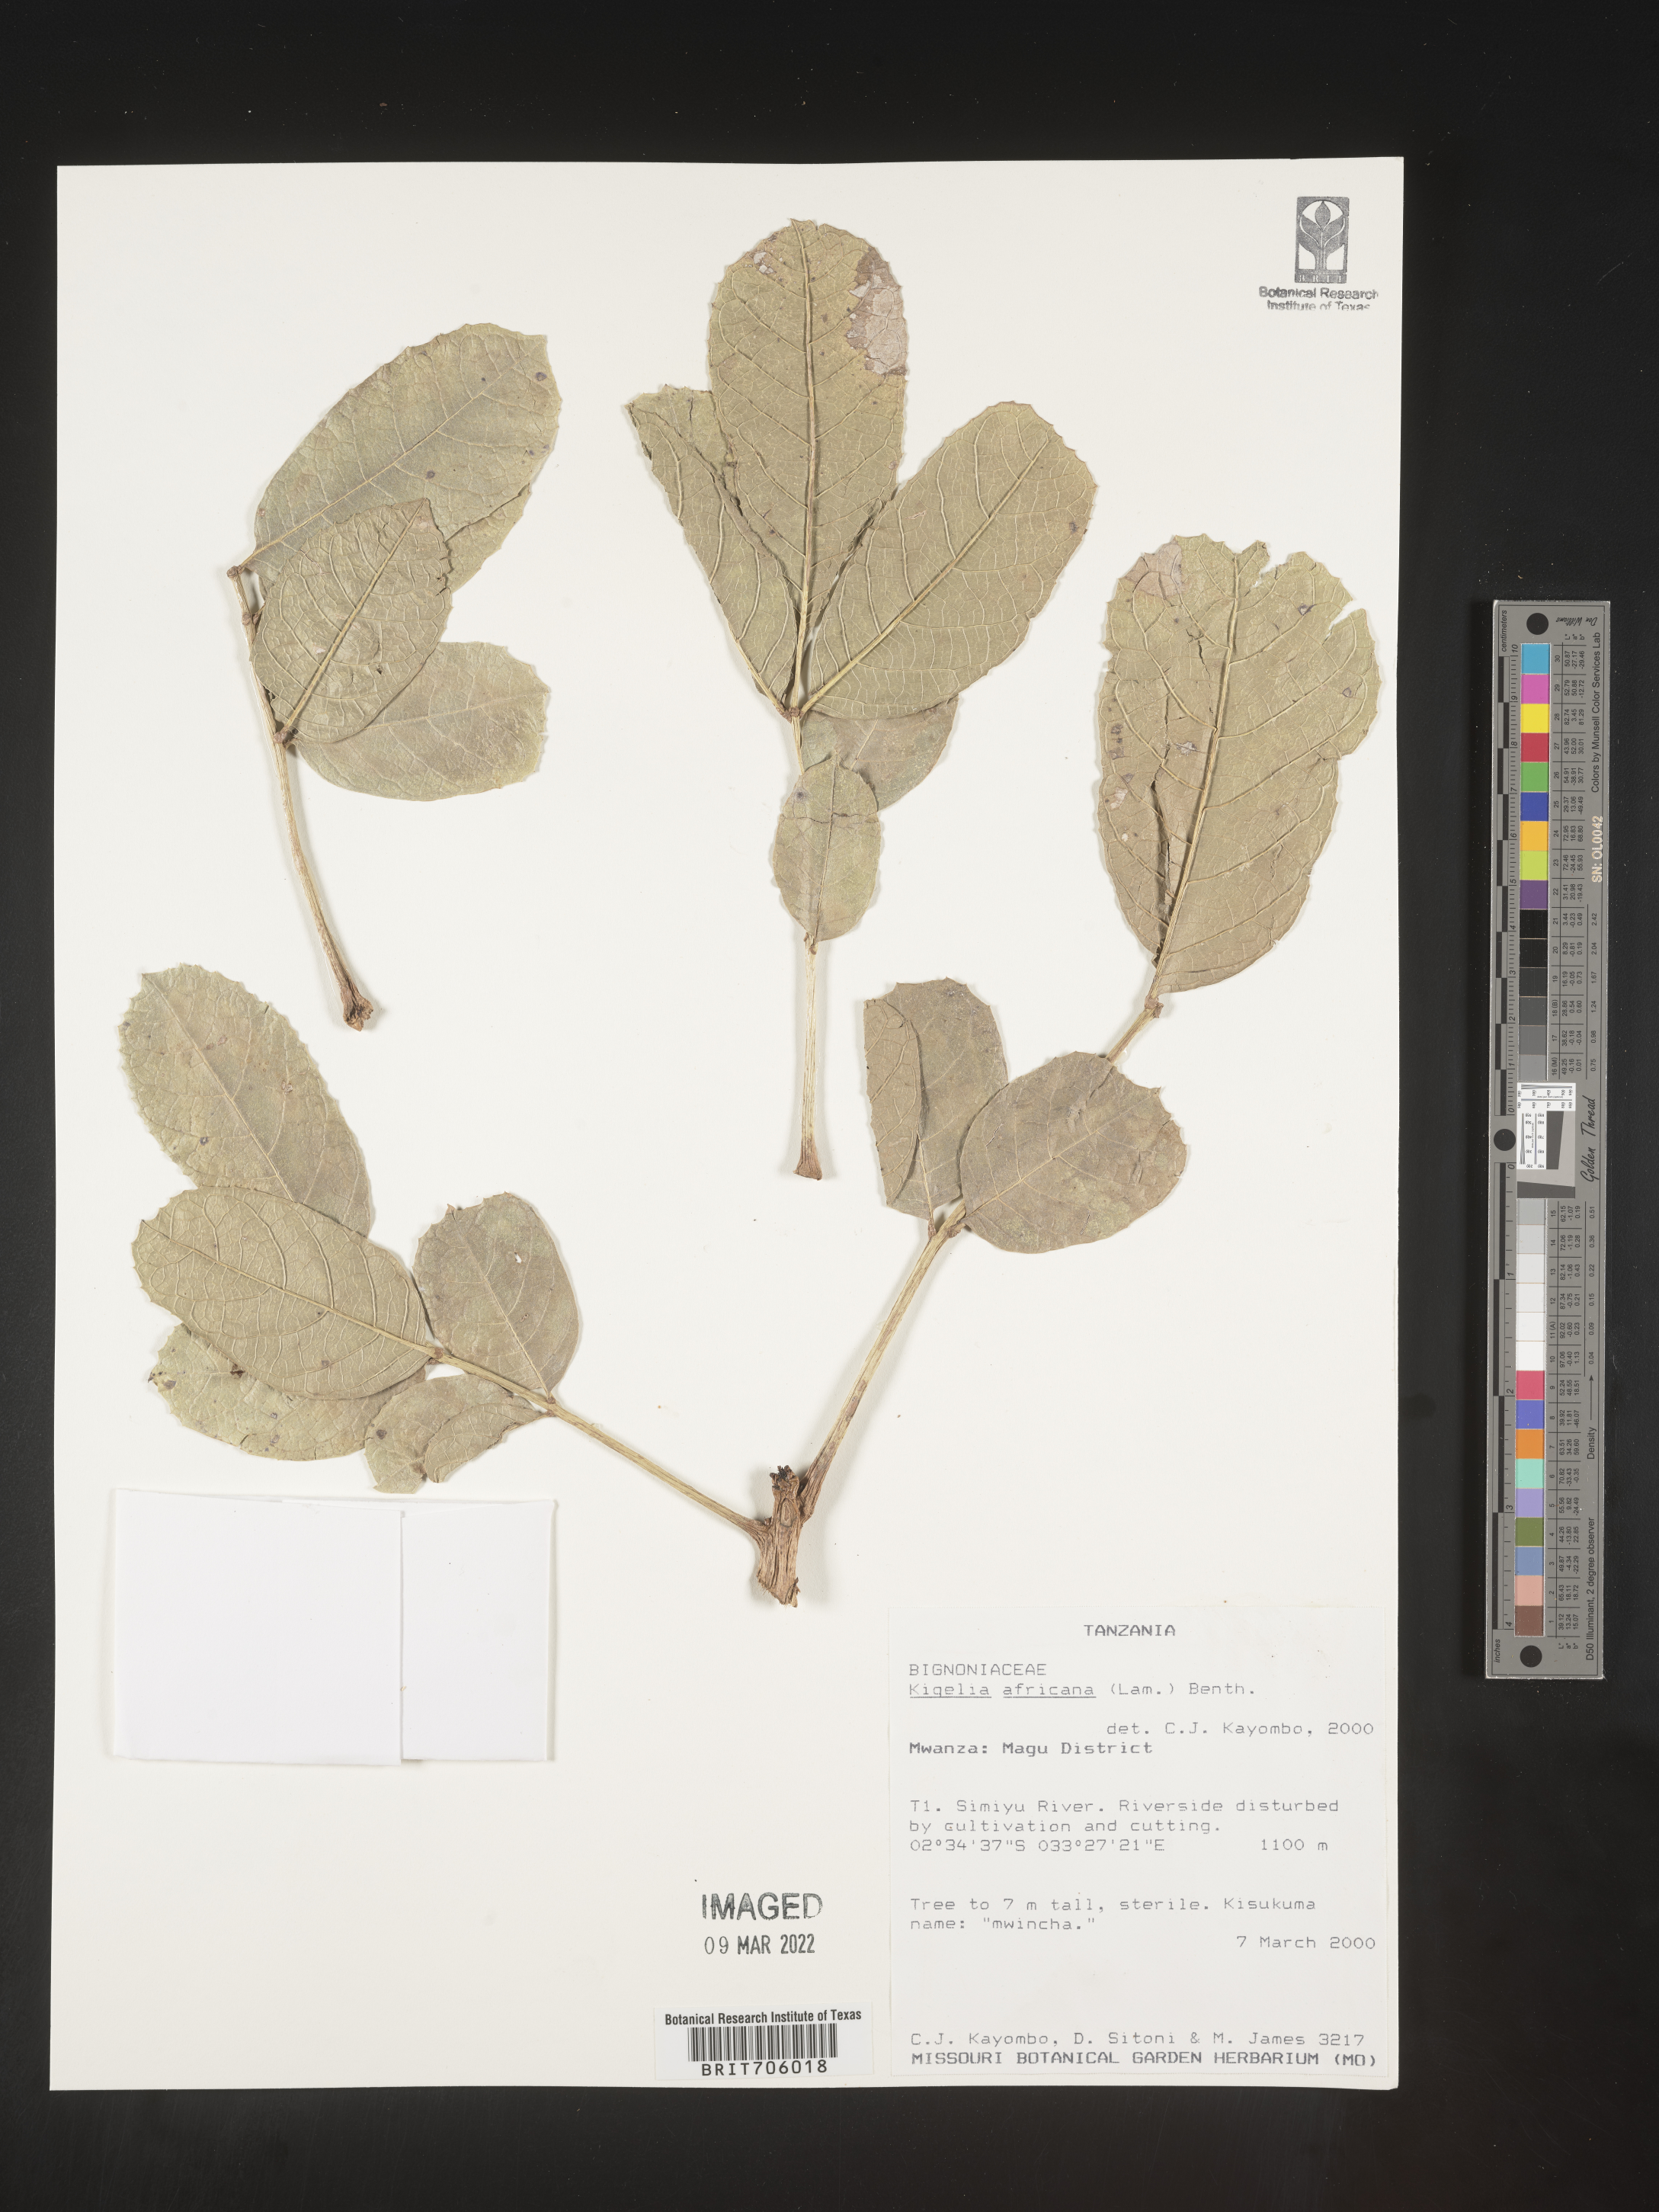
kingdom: Plantae
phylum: Tracheophyta
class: Magnoliopsida
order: Lamiales
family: Bignoniaceae
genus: Kigelia
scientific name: Kigelia
